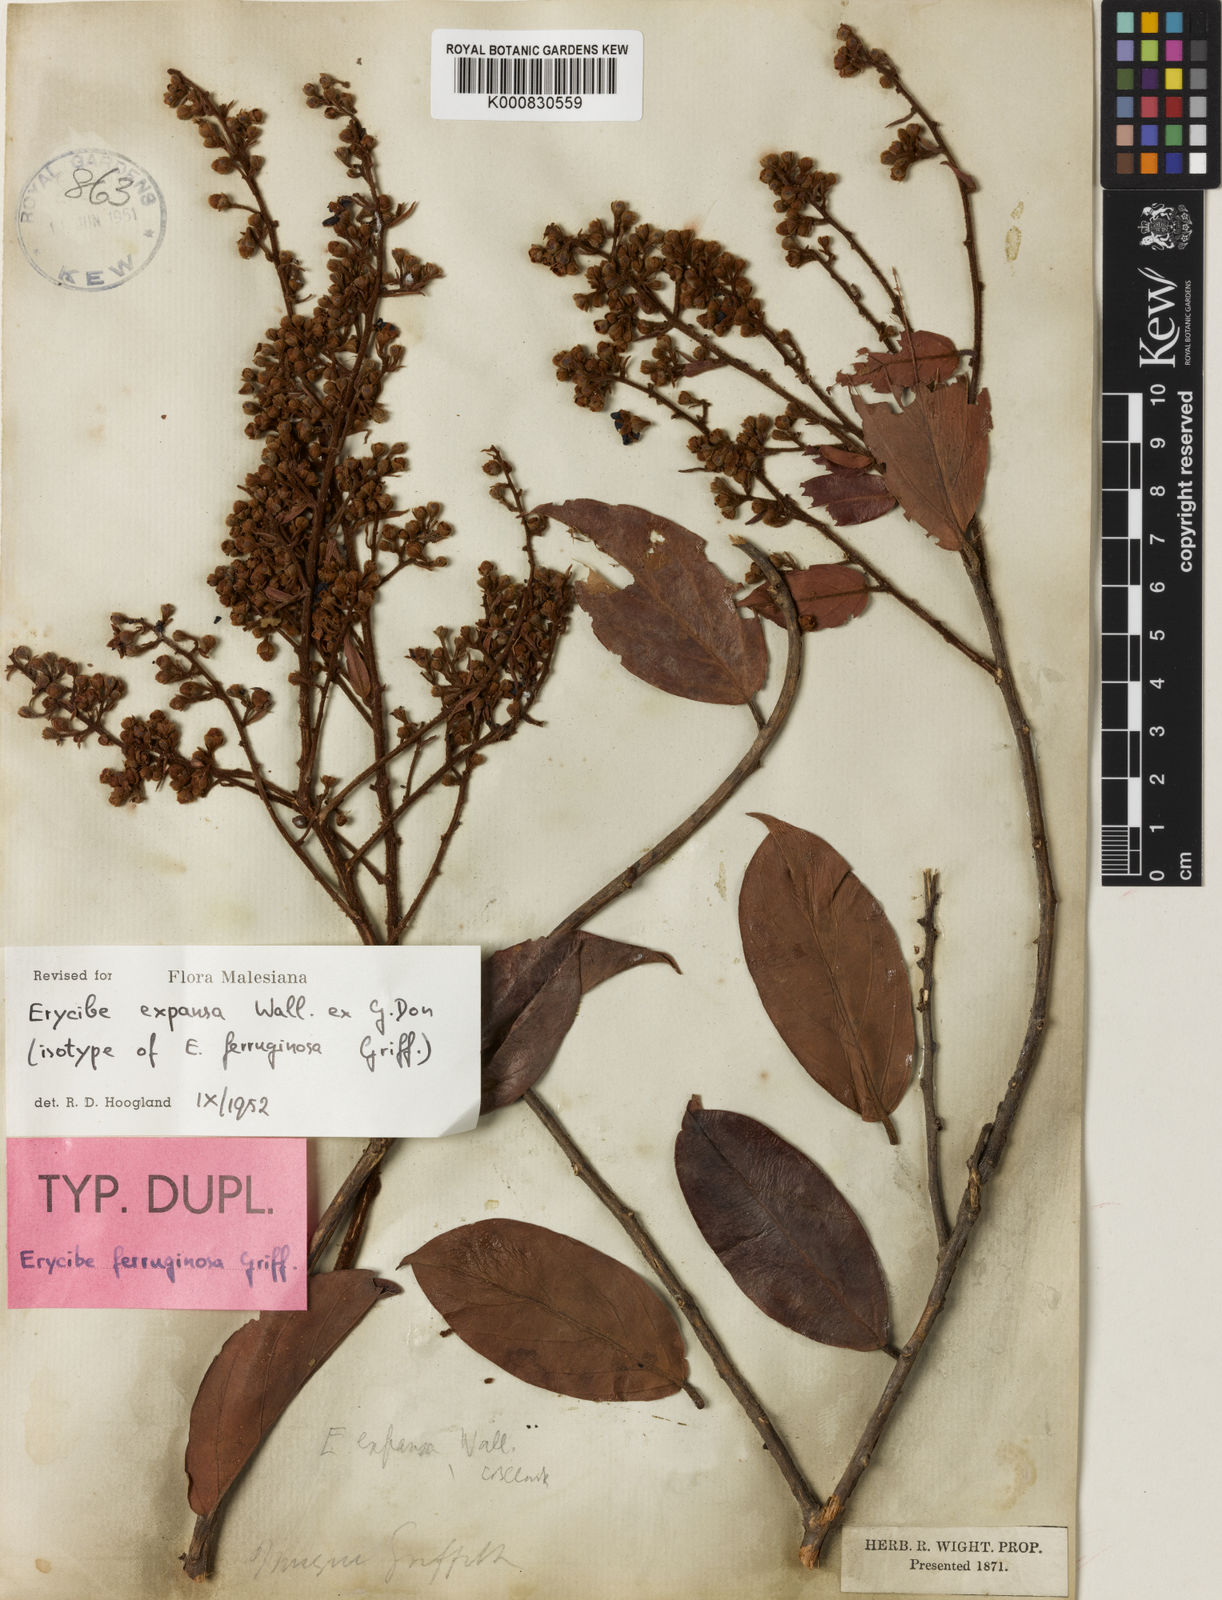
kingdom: Plantae
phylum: Tracheophyta
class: Magnoliopsida
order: Solanales
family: Convolvulaceae
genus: Erycibe
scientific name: Erycibe expansa
